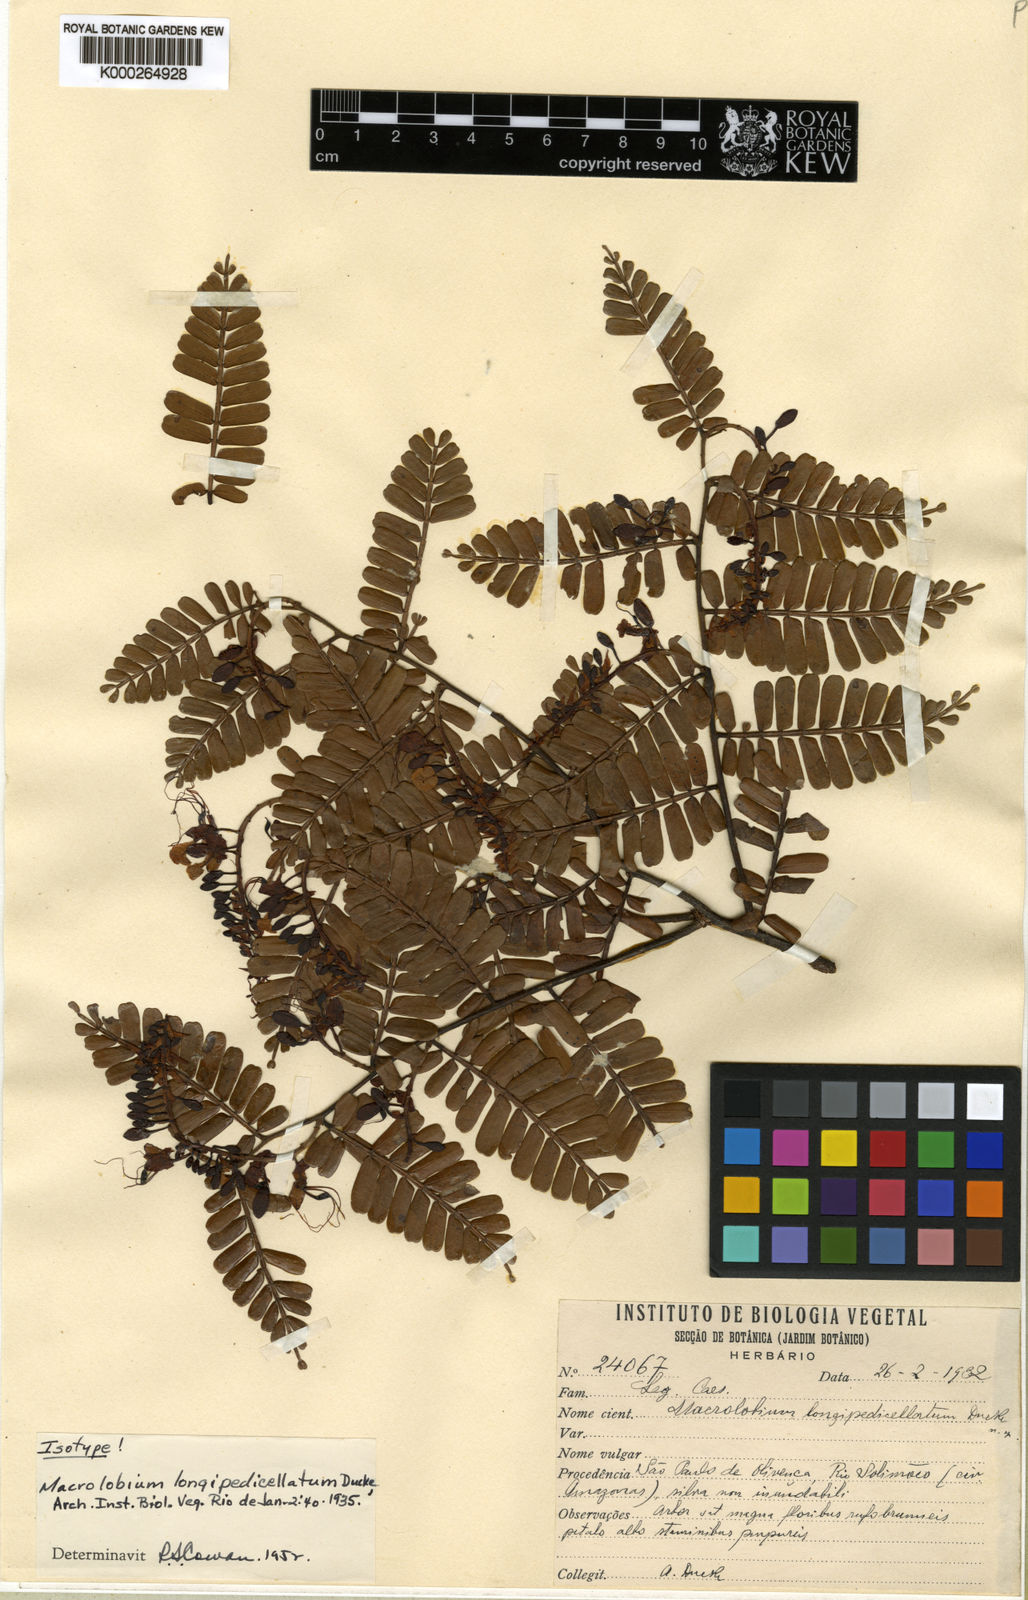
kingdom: Plantae
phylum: Tracheophyta
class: Magnoliopsida
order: Fabales
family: Fabaceae
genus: Macrolobium
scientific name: Macrolobium longipedicellatum
